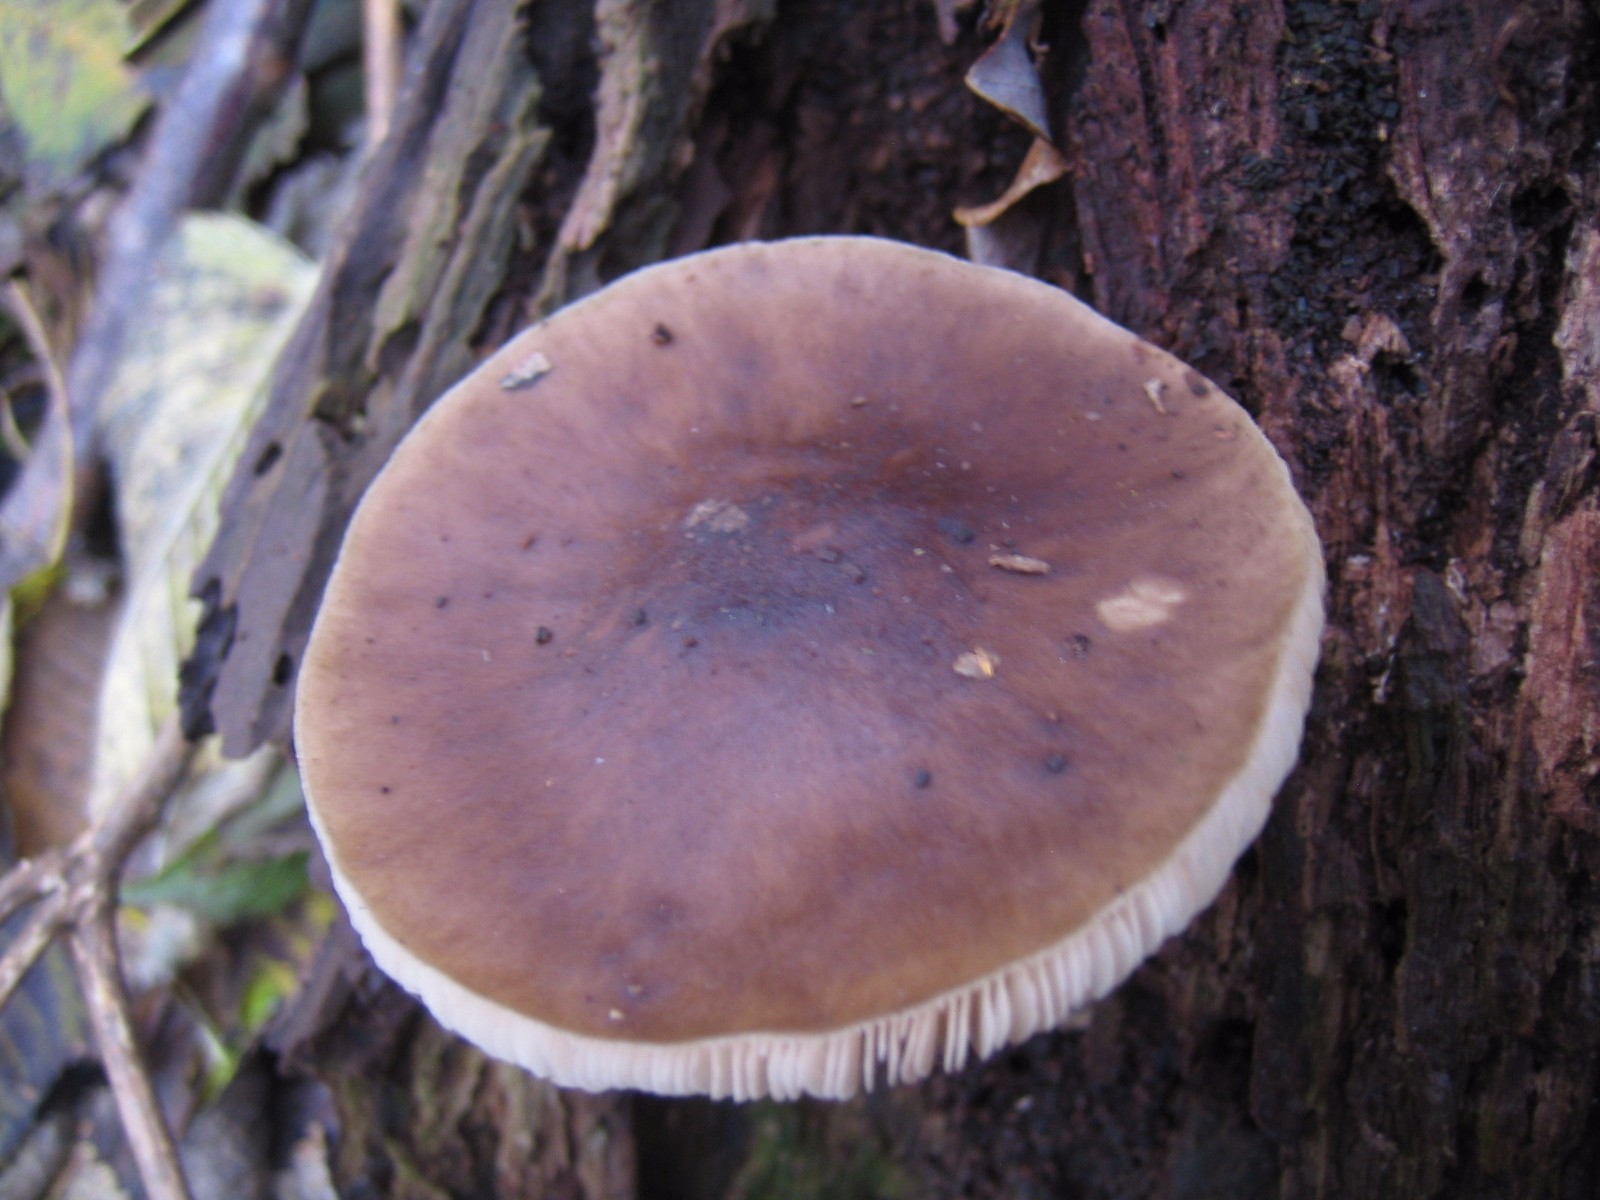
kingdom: Fungi
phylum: Basidiomycota
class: Agaricomycetes
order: Agaricales
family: Pluteaceae
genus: Pluteus
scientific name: Pluteus cervinus
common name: sodfarvet skærmhat
